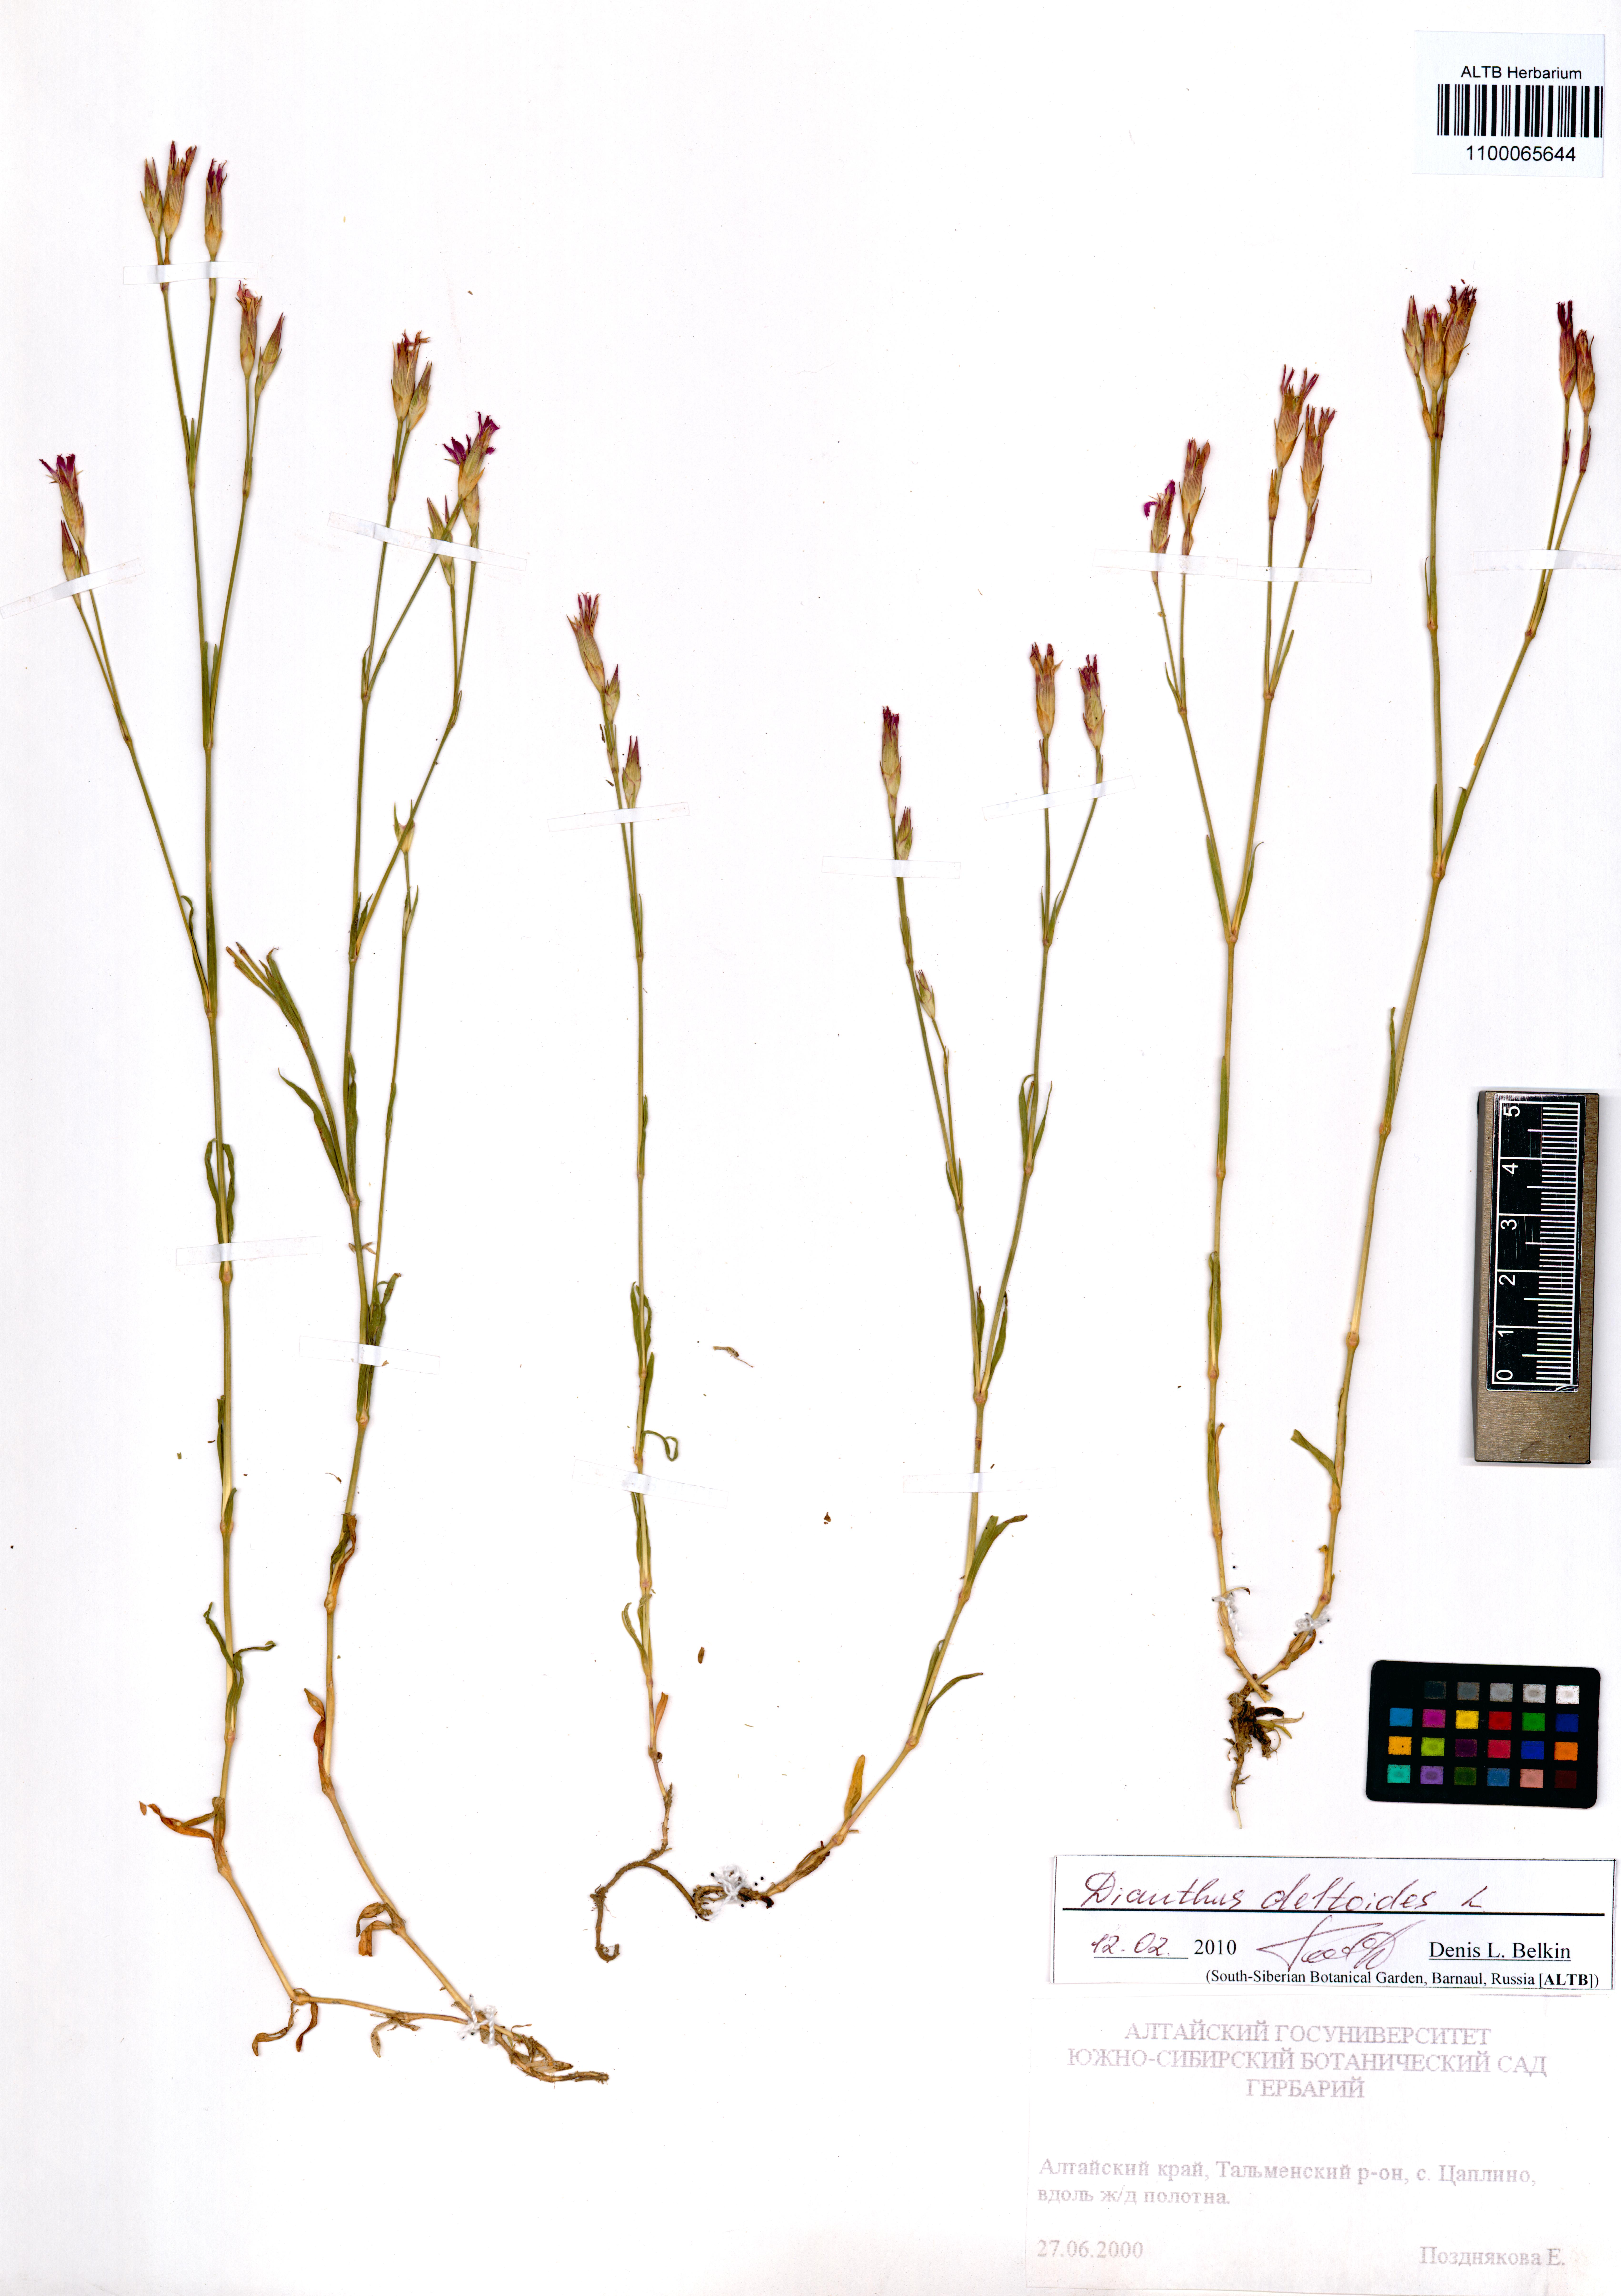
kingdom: Plantae
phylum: Tracheophyta
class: Magnoliopsida
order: Caryophyllales
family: Caryophyllaceae
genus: Dianthus
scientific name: Dianthus deltoides
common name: Maiden pink
